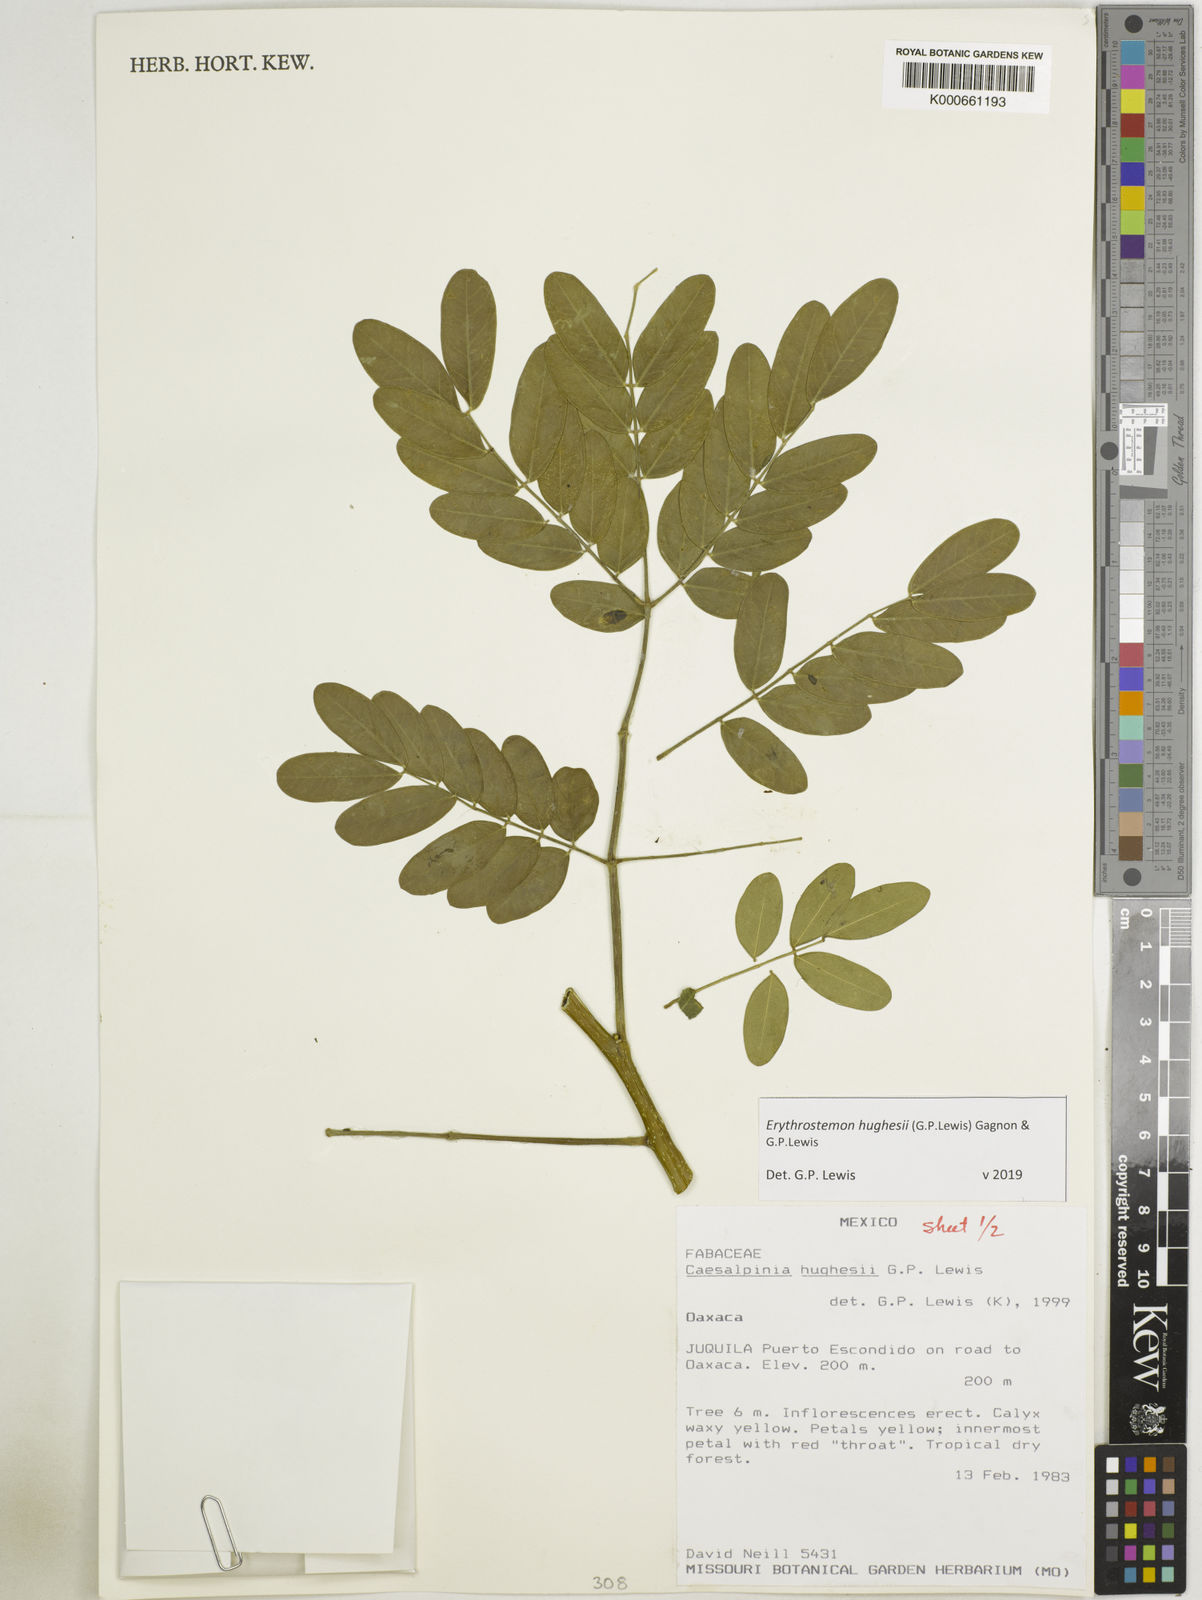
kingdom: Plantae
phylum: Tracheophyta
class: Magnoliopsida
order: Fabales
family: Fabaceae
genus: Erythrostemon
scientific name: Erythrostemon hughesii
